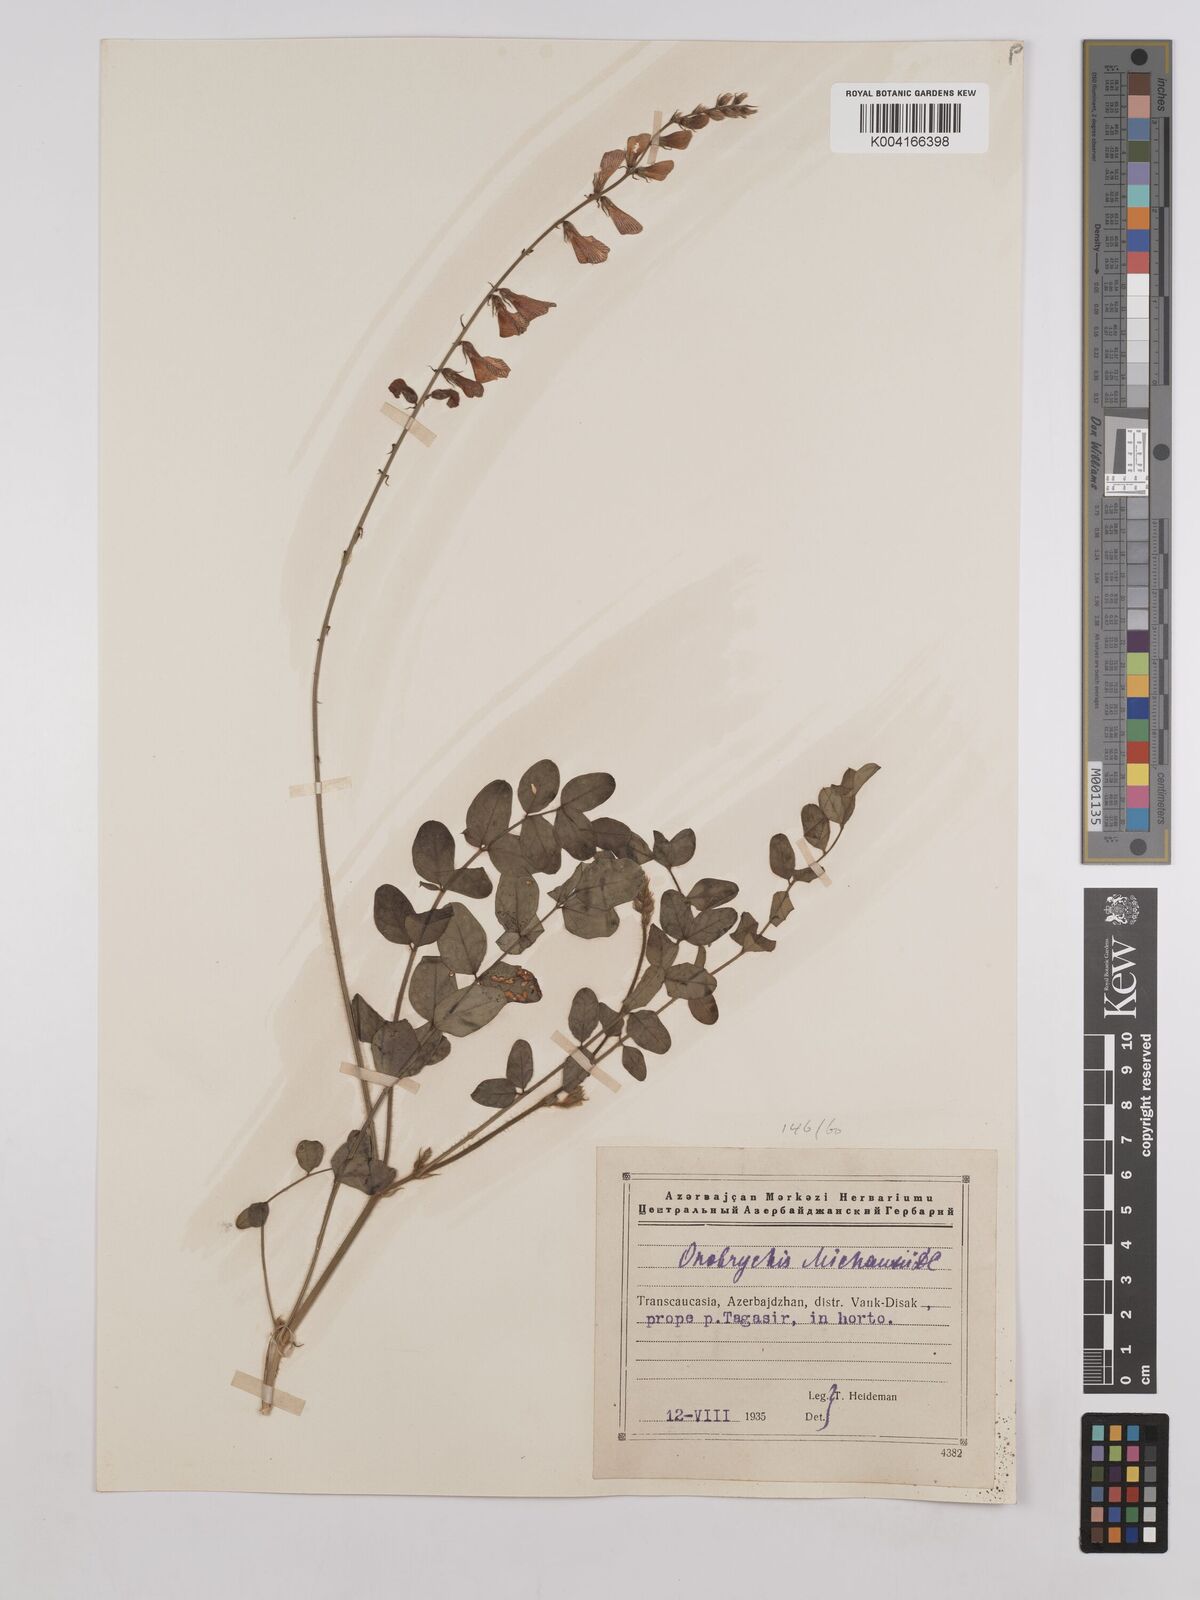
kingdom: Plantae
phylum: Tracheophyta
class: Magnoliopsida
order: Fabales
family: Fabaceae
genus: Onobrychis
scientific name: Onobrychis
